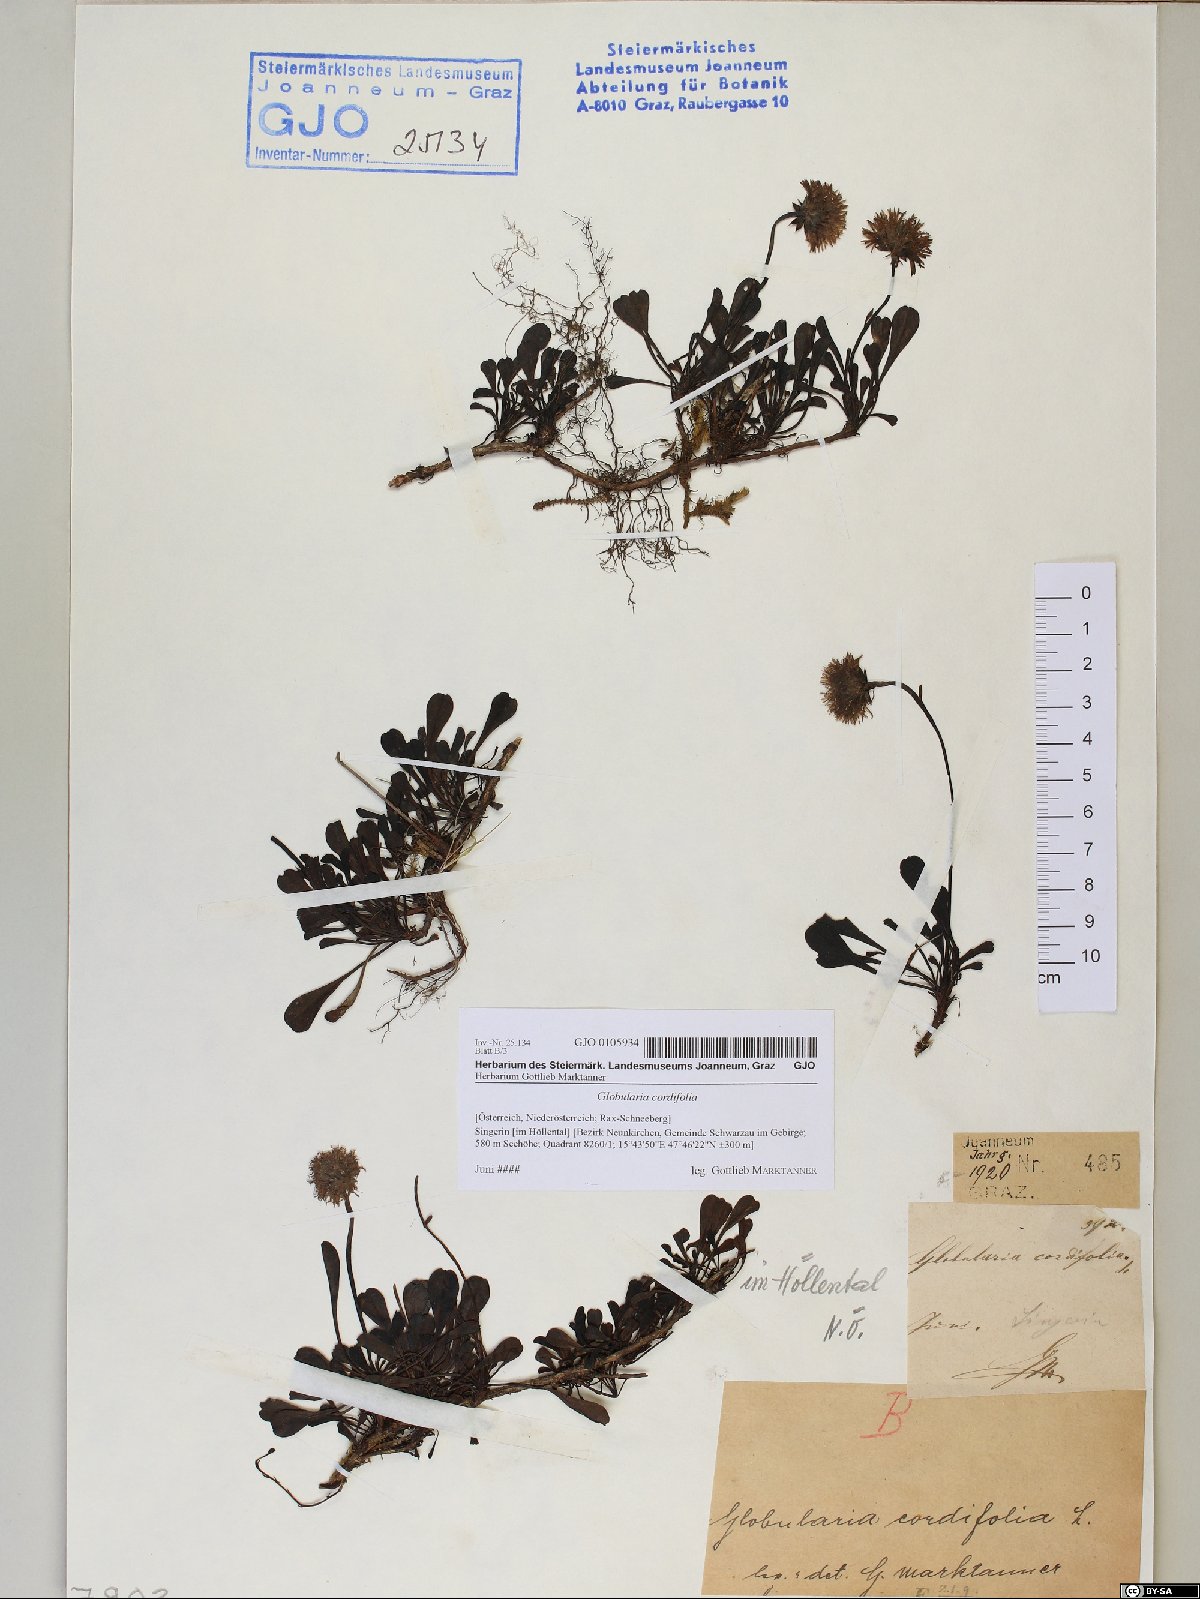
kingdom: Plantae
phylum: Tracheophyta
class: Magnoliopsida
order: Lamiales
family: Plantaginaceae
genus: Globularia
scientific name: Globularia cordifolia
